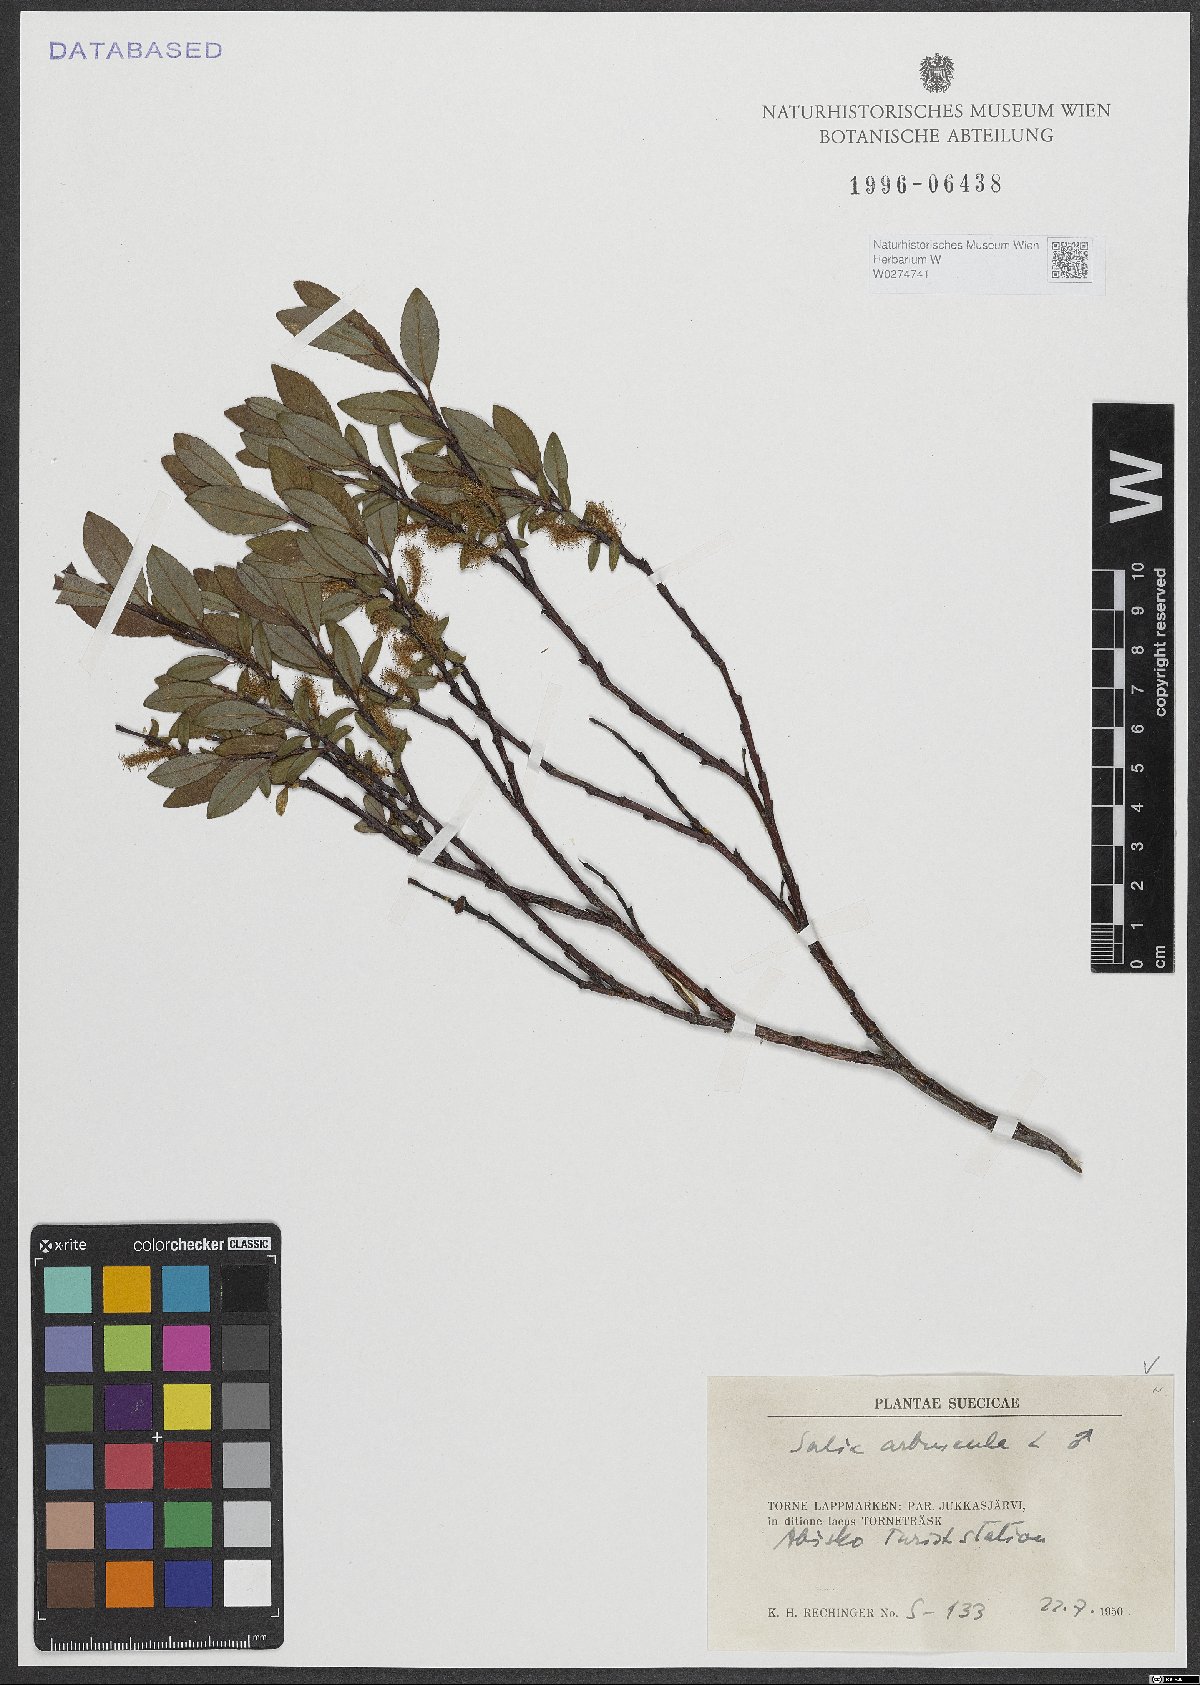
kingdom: Plantae
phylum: Tracheophyta
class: Magnoliopsida
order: Malpighiales
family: Salicaceae
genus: Salix
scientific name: Salix arbuscula
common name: Mountain willow
